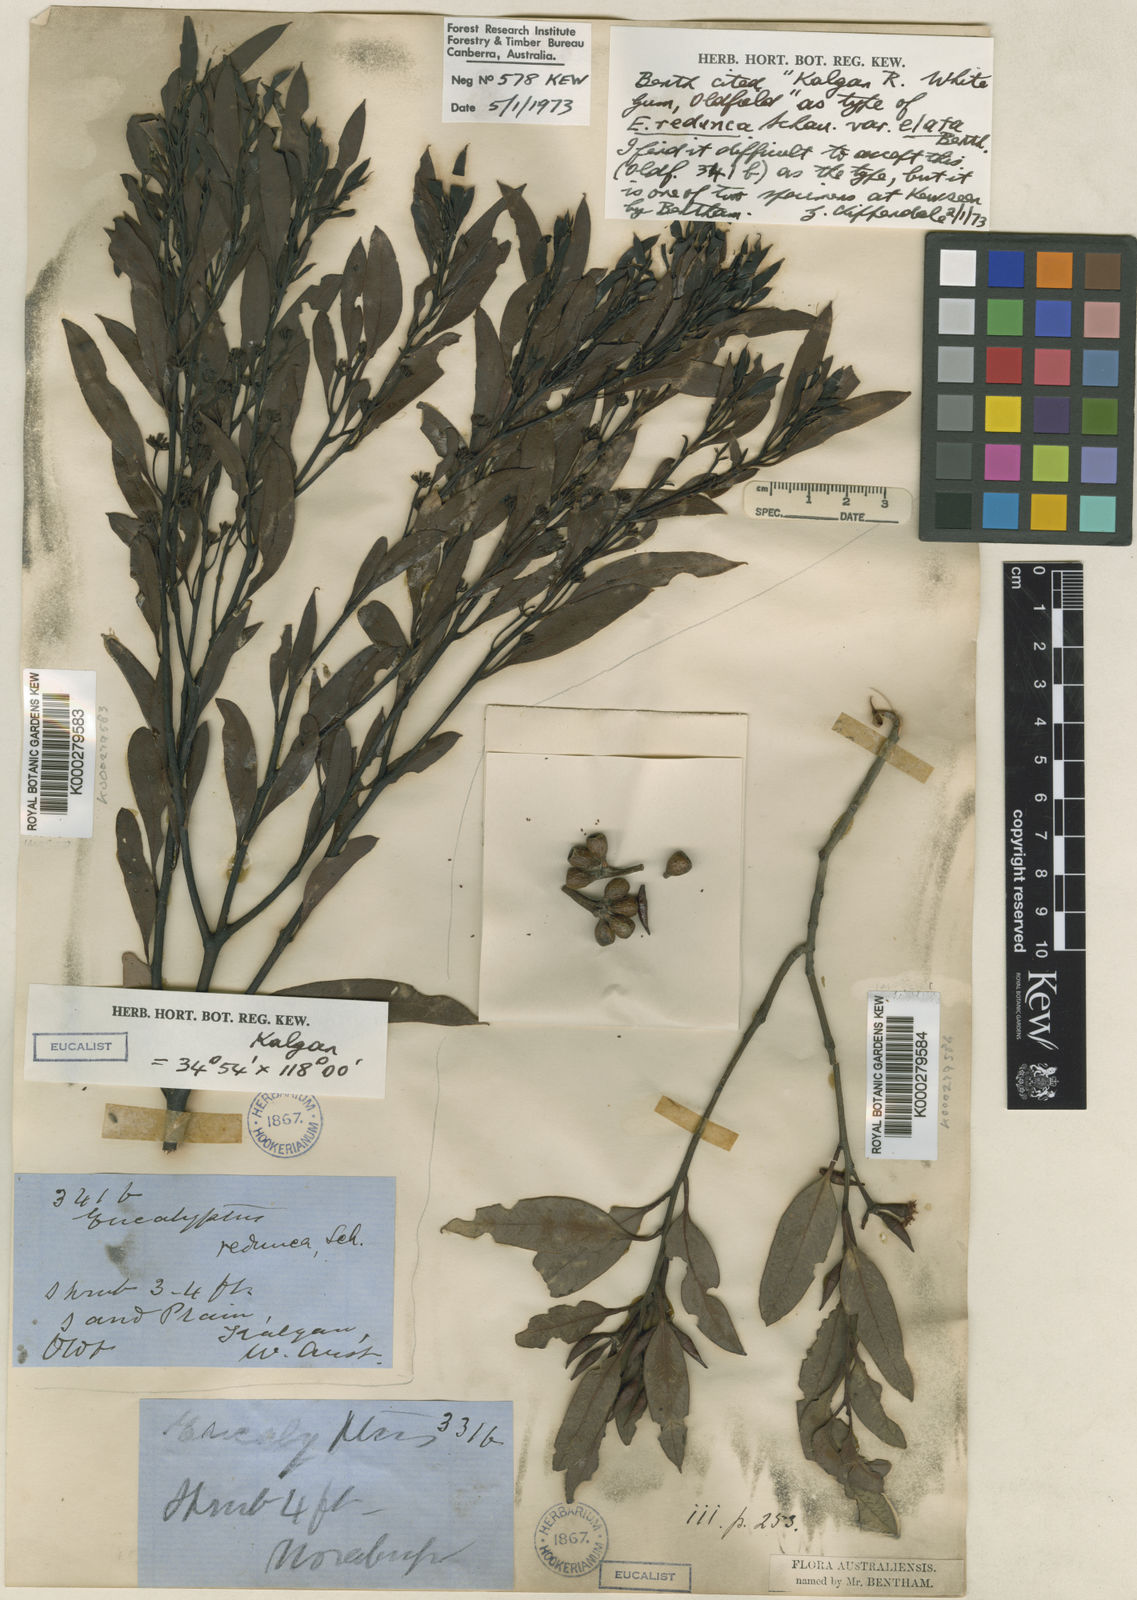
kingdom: Plantae
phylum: Tracheophyta
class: Magnoliopsida
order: Myrtales
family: Myrtaceae
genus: Eucalyptus
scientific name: Eucalyptus wandoo
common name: White gum
